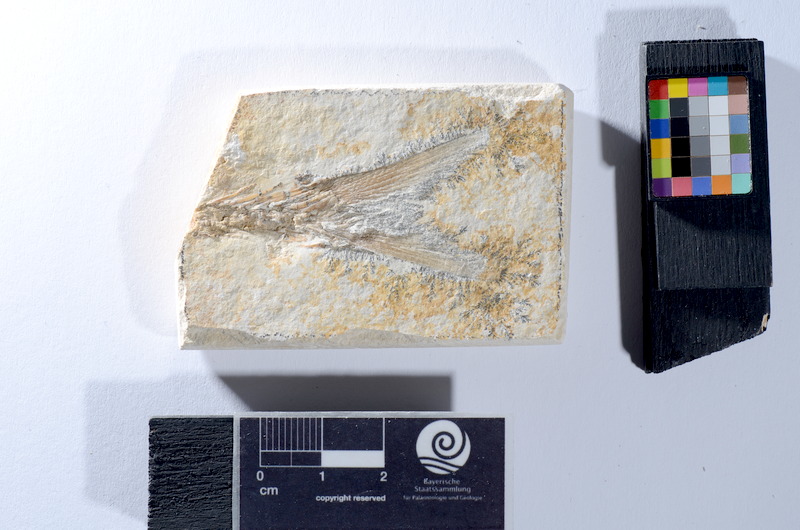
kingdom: Animalia
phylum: Chordata
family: Ascalaboidae
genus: Tharsis
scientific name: Tharsis dubius
